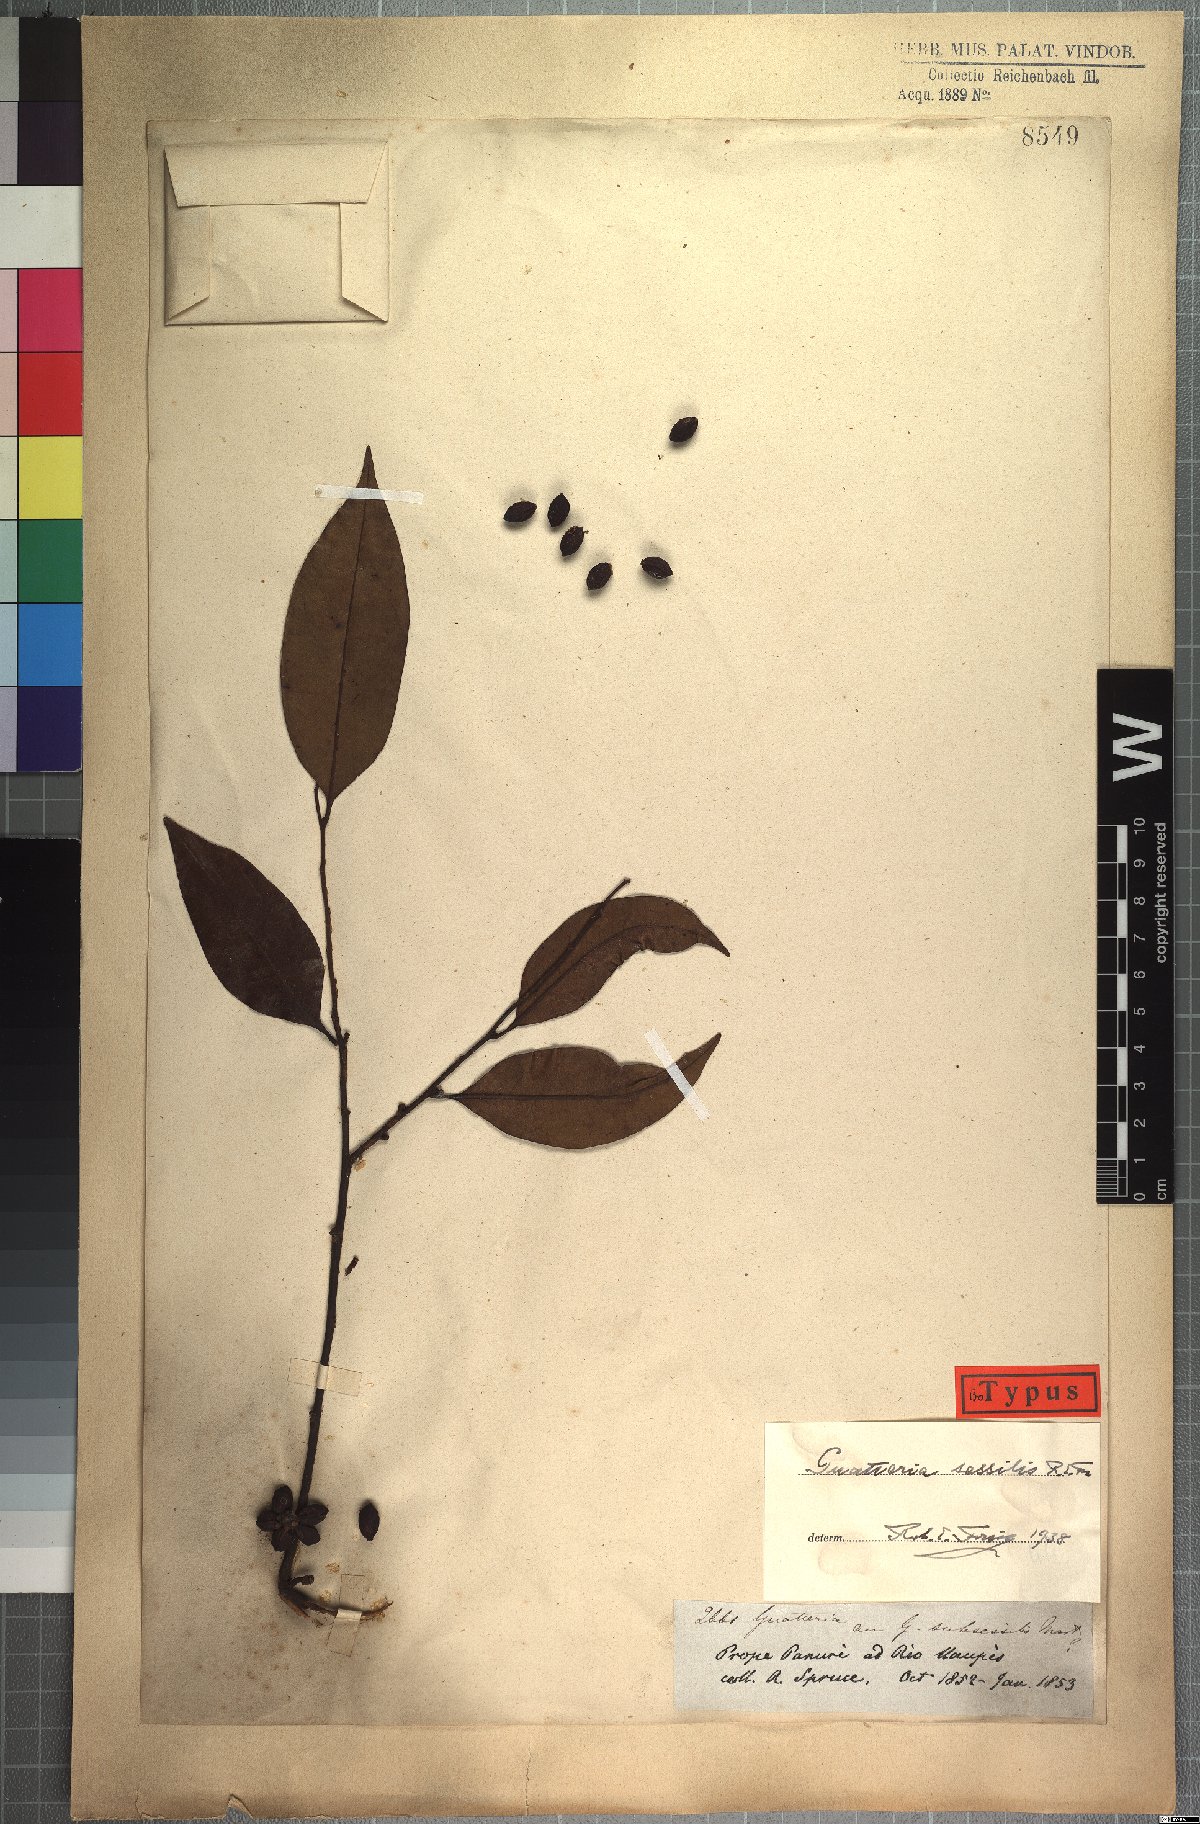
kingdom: Plantae
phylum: Tracheophyta
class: Magnoliopsida
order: Magnoliales
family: Annonaceae
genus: Guatteria
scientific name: Guatteria schomburgkiana
